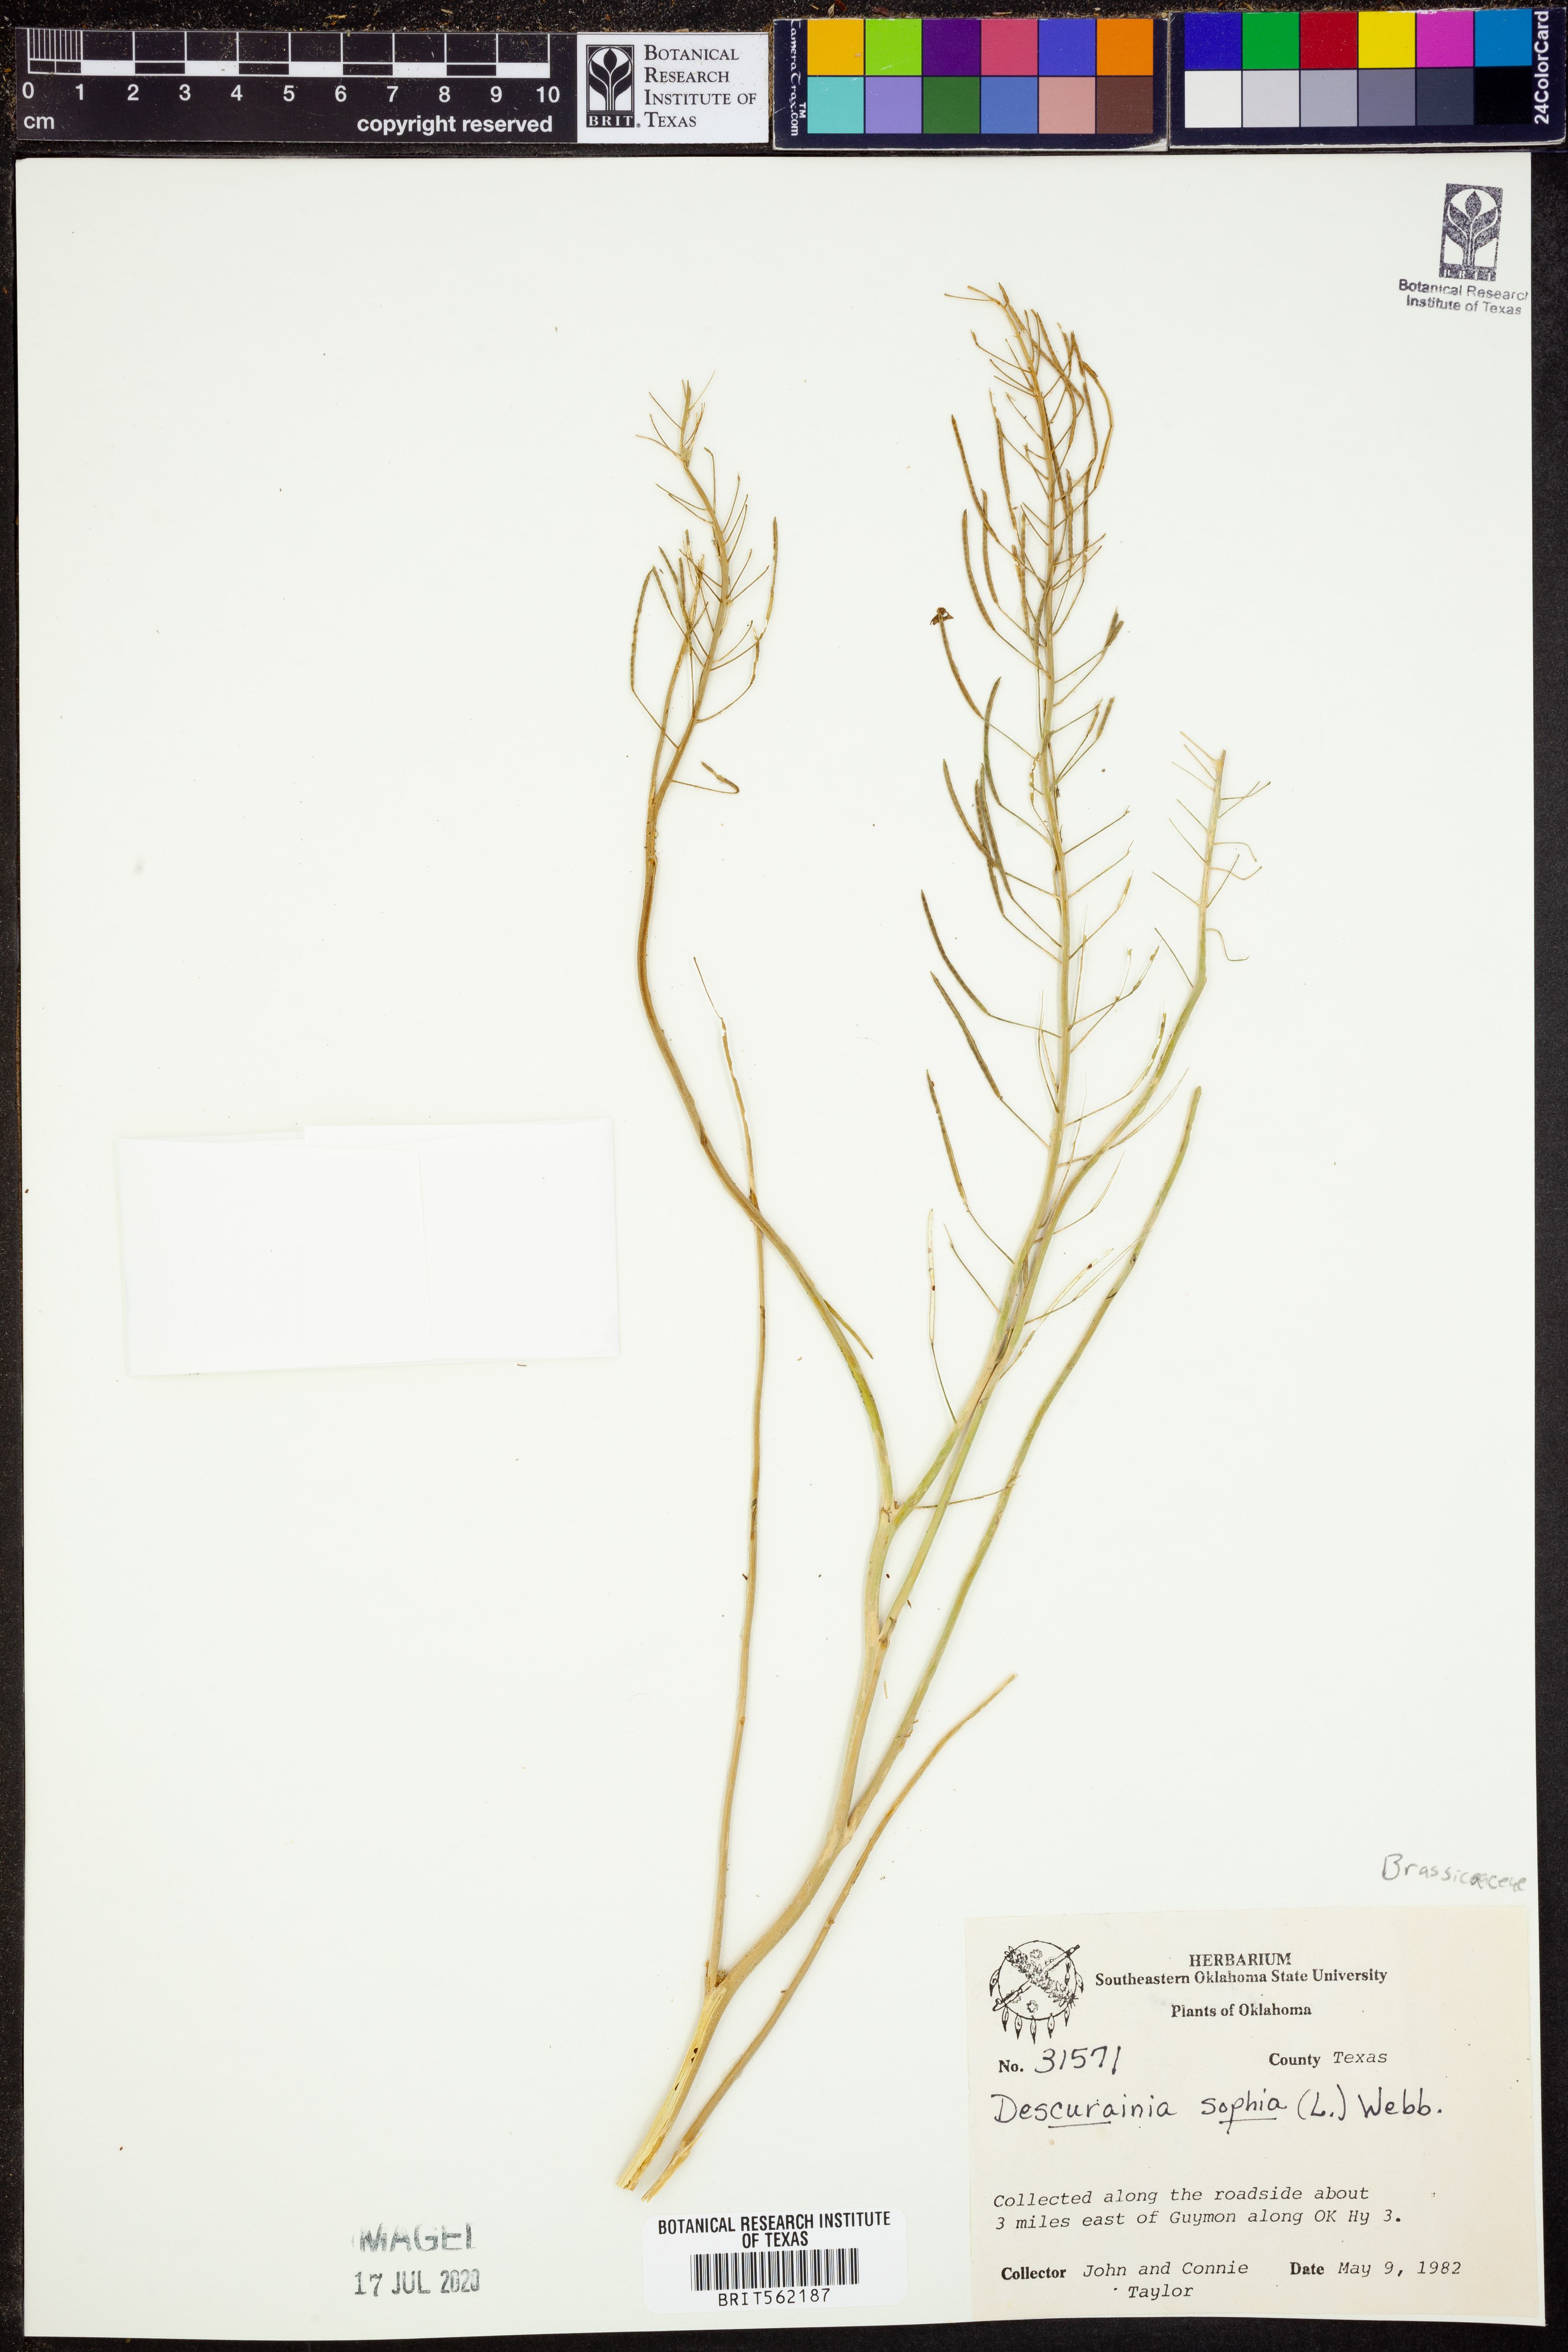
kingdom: Plantae
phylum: Tracheophyta
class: Magnoliopsida
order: Brassicales
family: Brassicaceae
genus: Descurainia
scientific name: Descurainia sophia
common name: Flixweed
